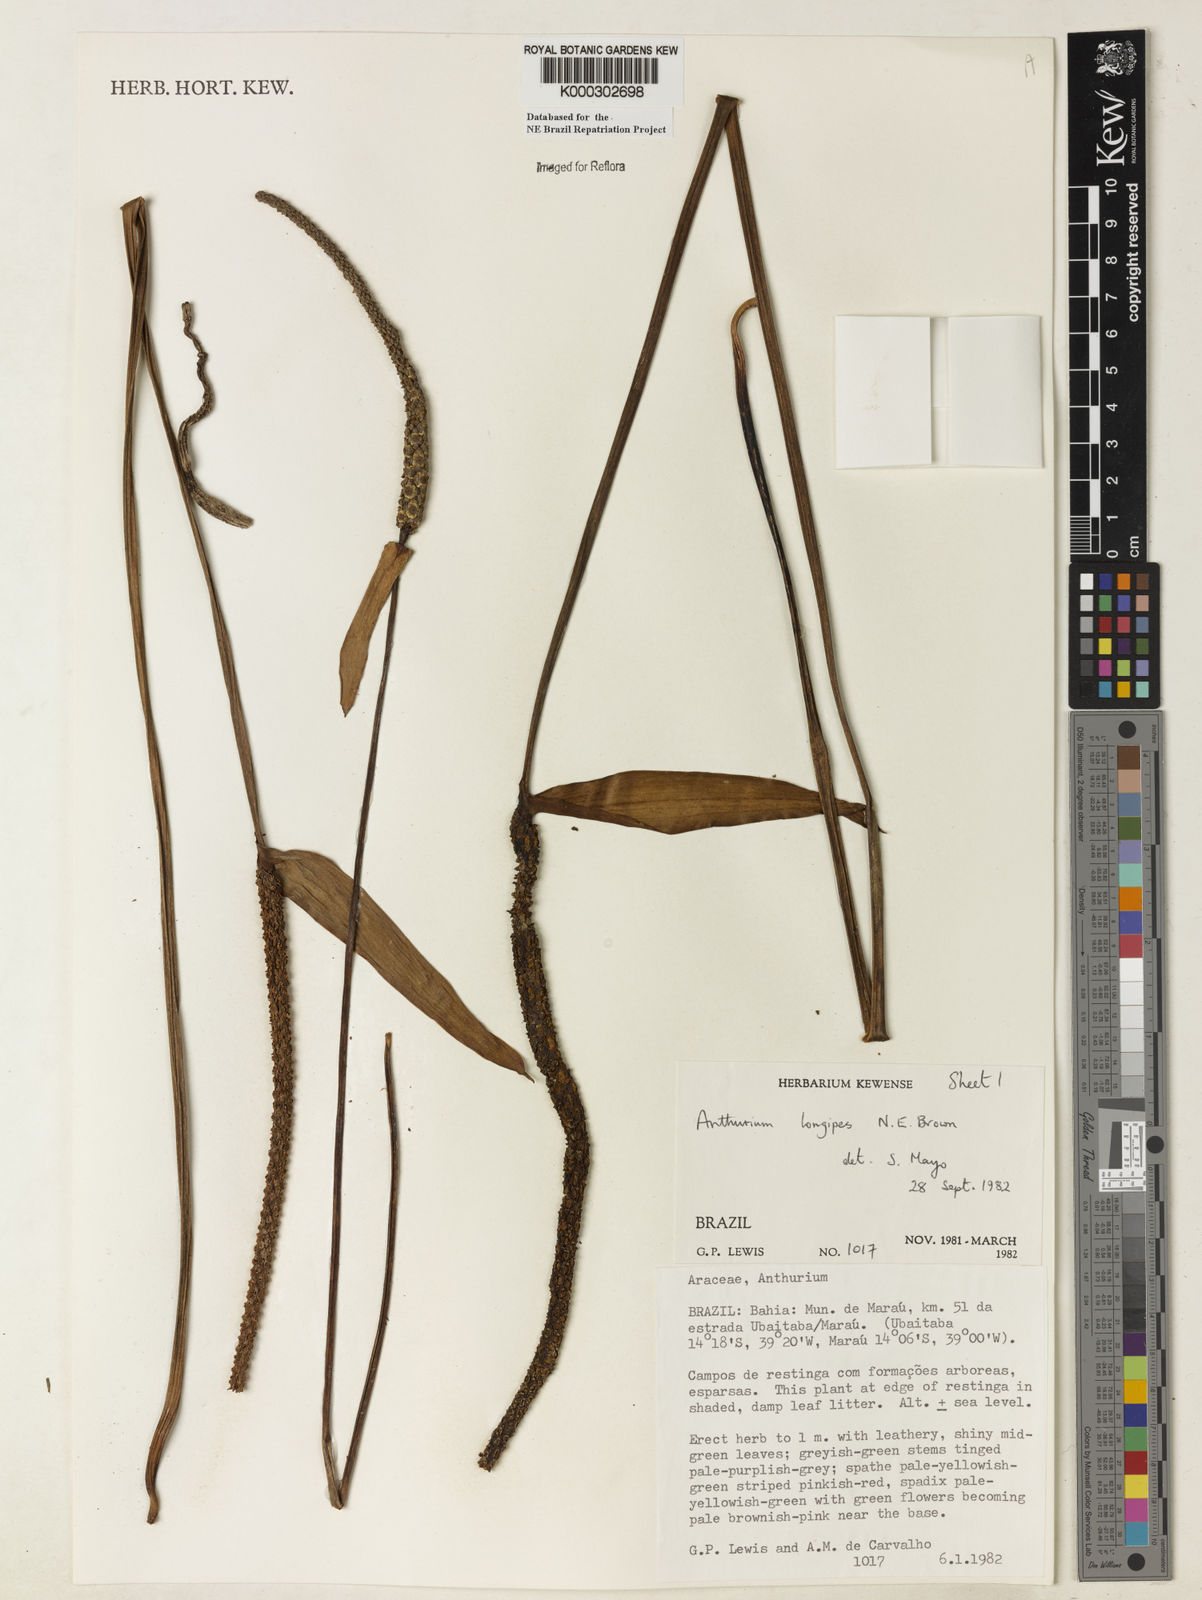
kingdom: Plantae
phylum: Tracheophyta
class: Liliopsida
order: Alismatales
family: Araceae
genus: Anthurium
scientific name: Anthurium longipes
